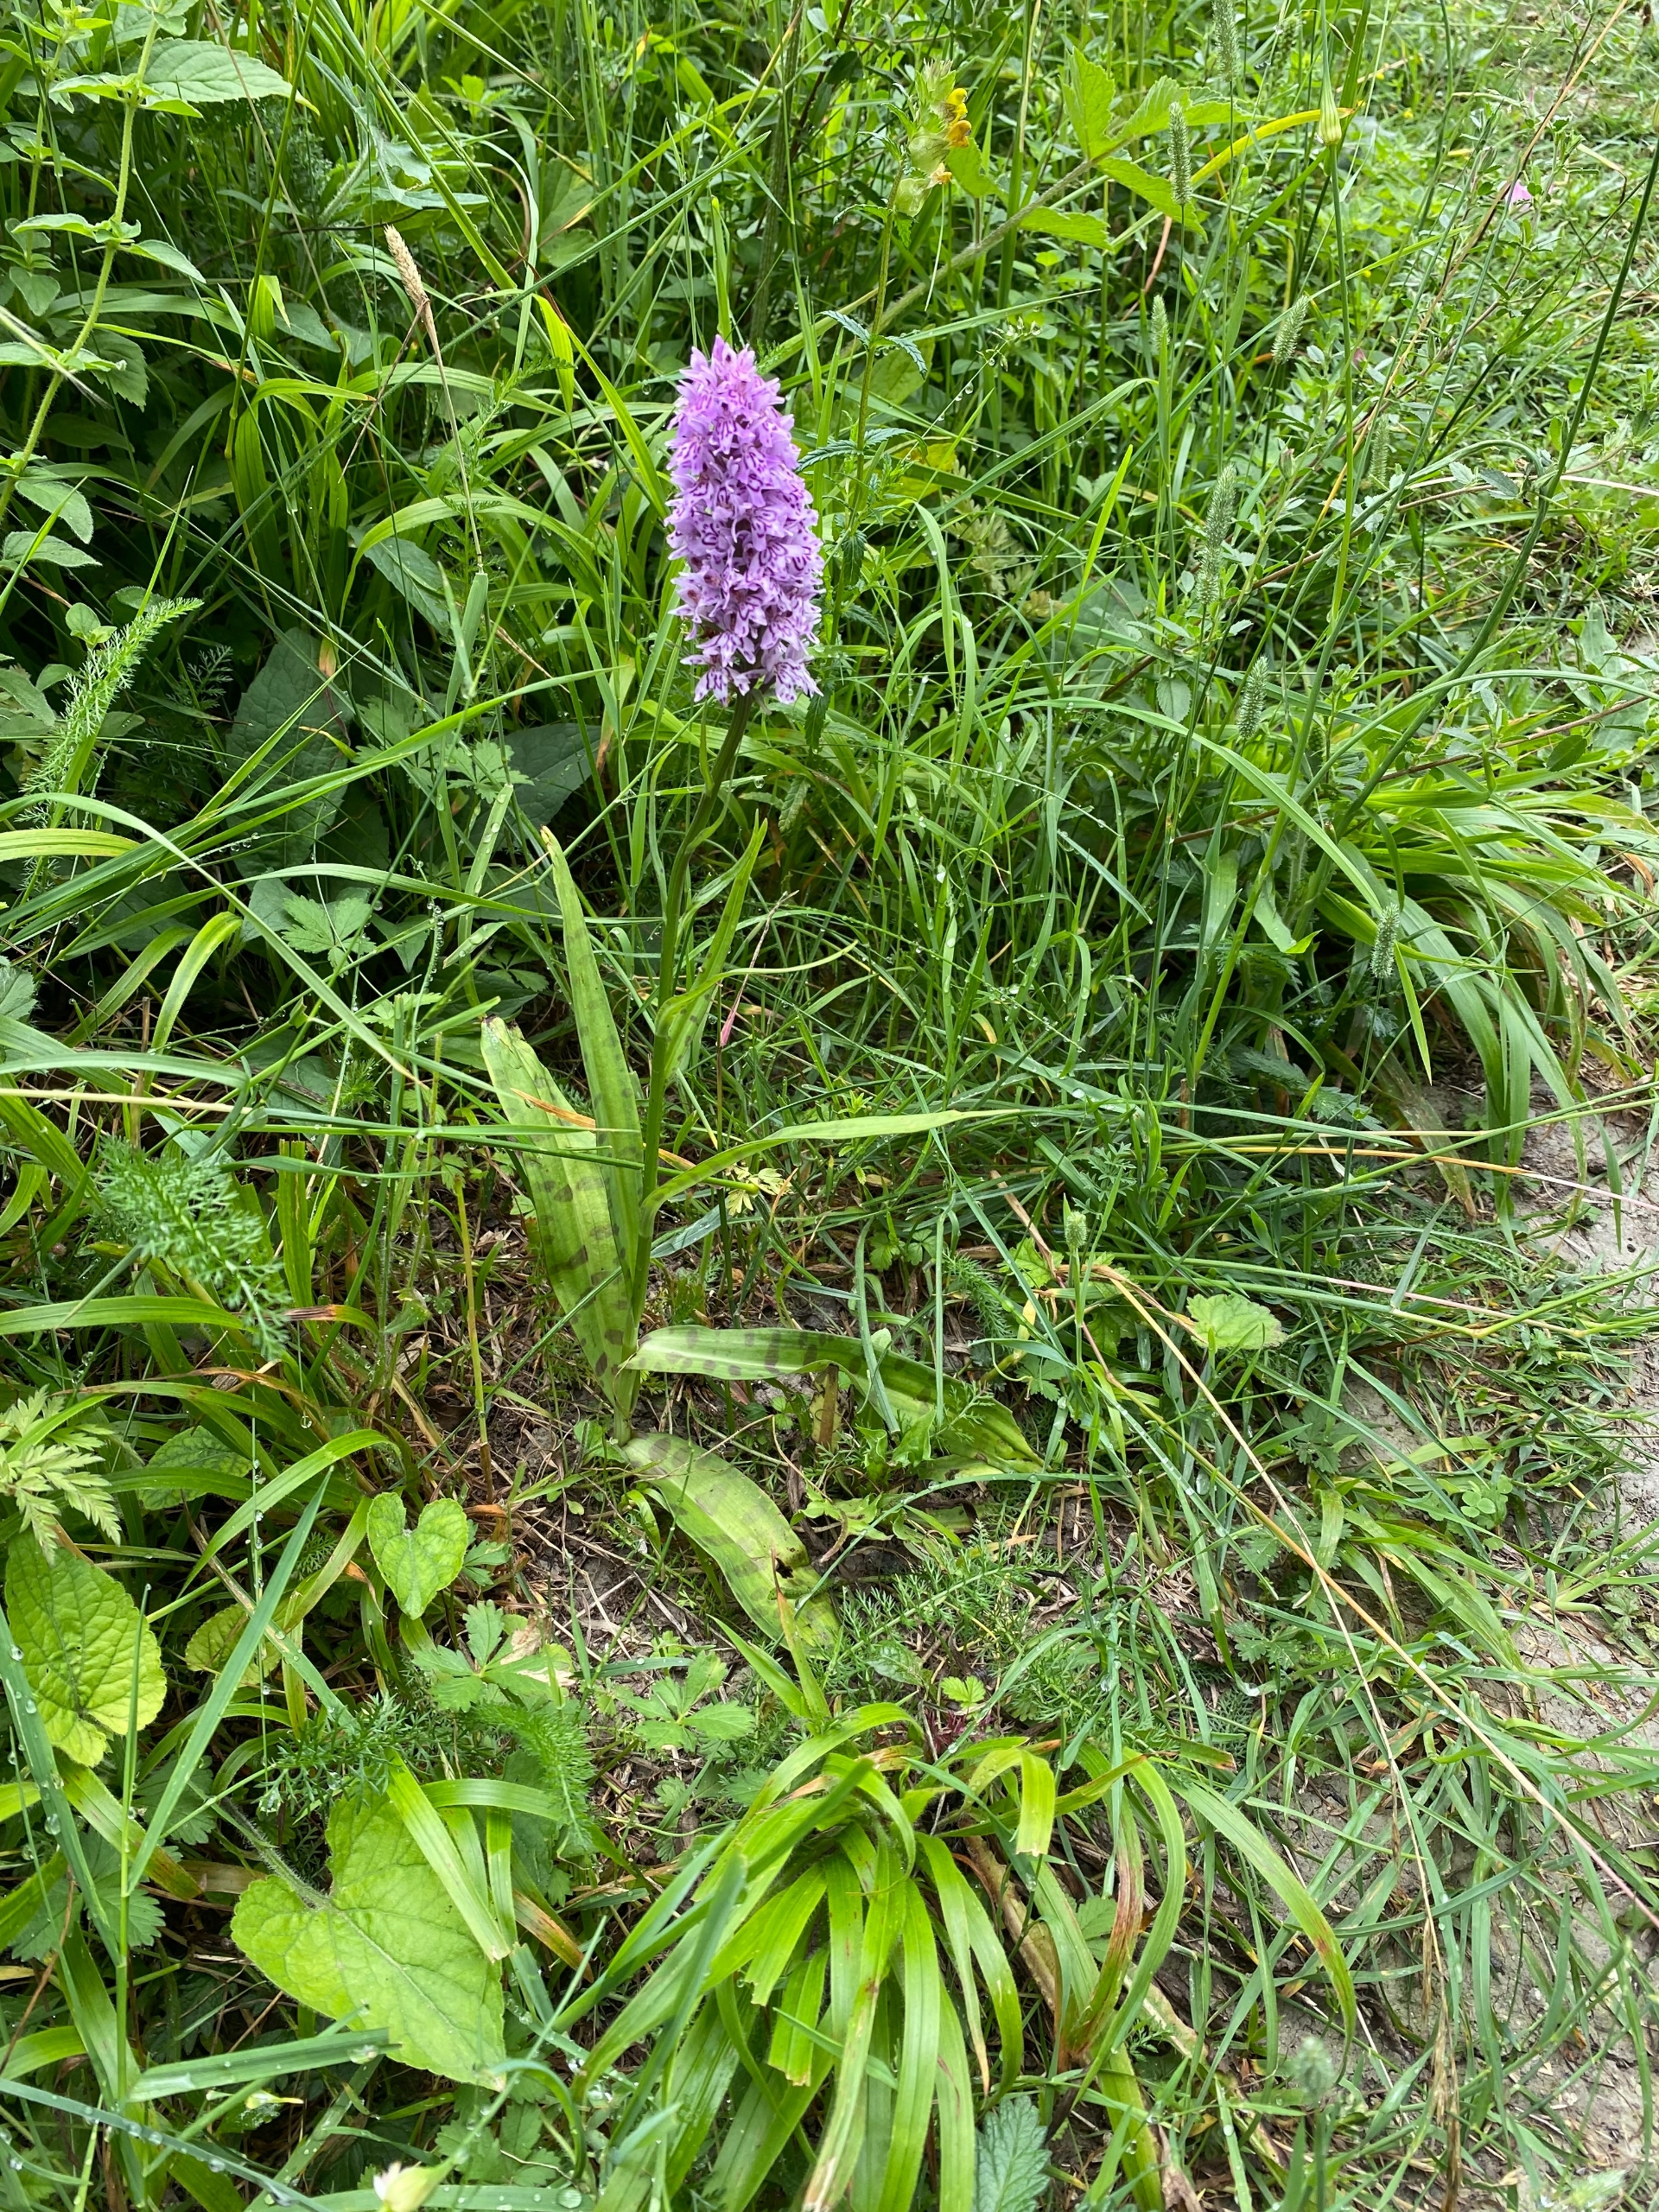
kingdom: Plantae
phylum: Tracheophyta
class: Liliopsida
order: Asparagales
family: Orchidaceae
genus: Dactylorhiza
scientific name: Dactylorhiza maculata
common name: Skov-gøgeurt
